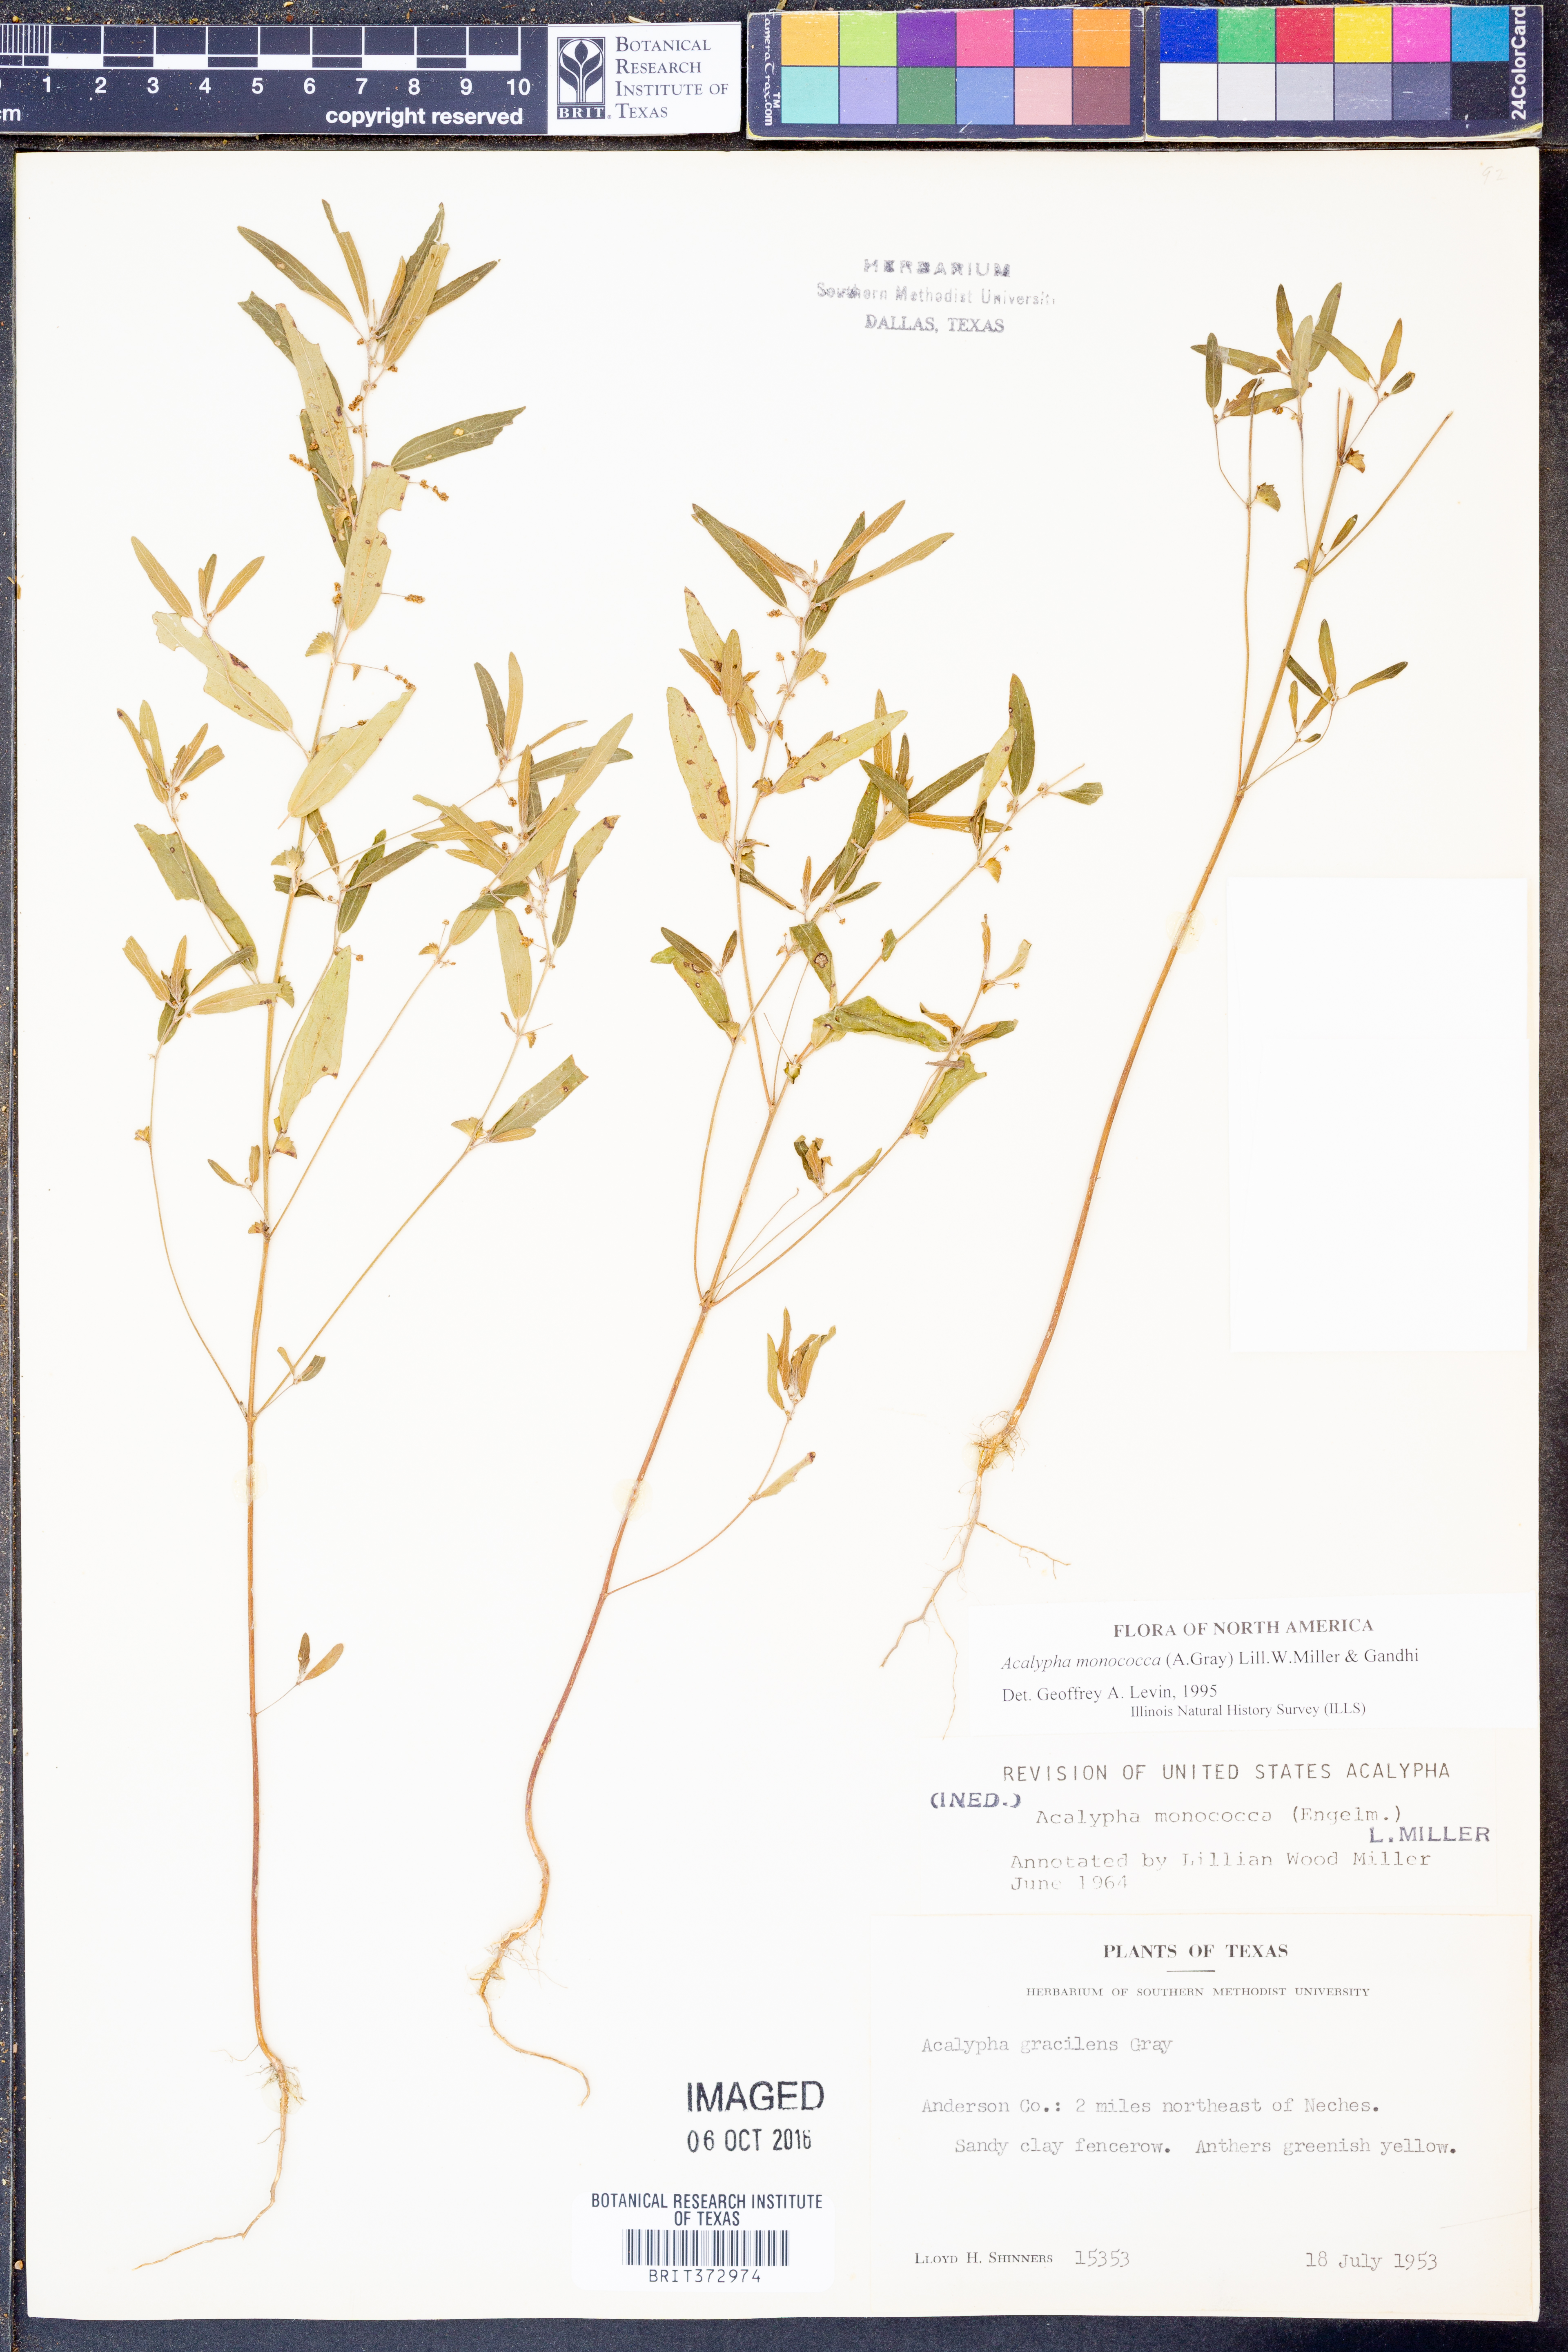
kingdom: Plantae
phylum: Tracheophyta
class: Magnoliopsida
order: Malpighiales
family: Euphorbiaceae
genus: Acalypha
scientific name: Acalypha monococca
